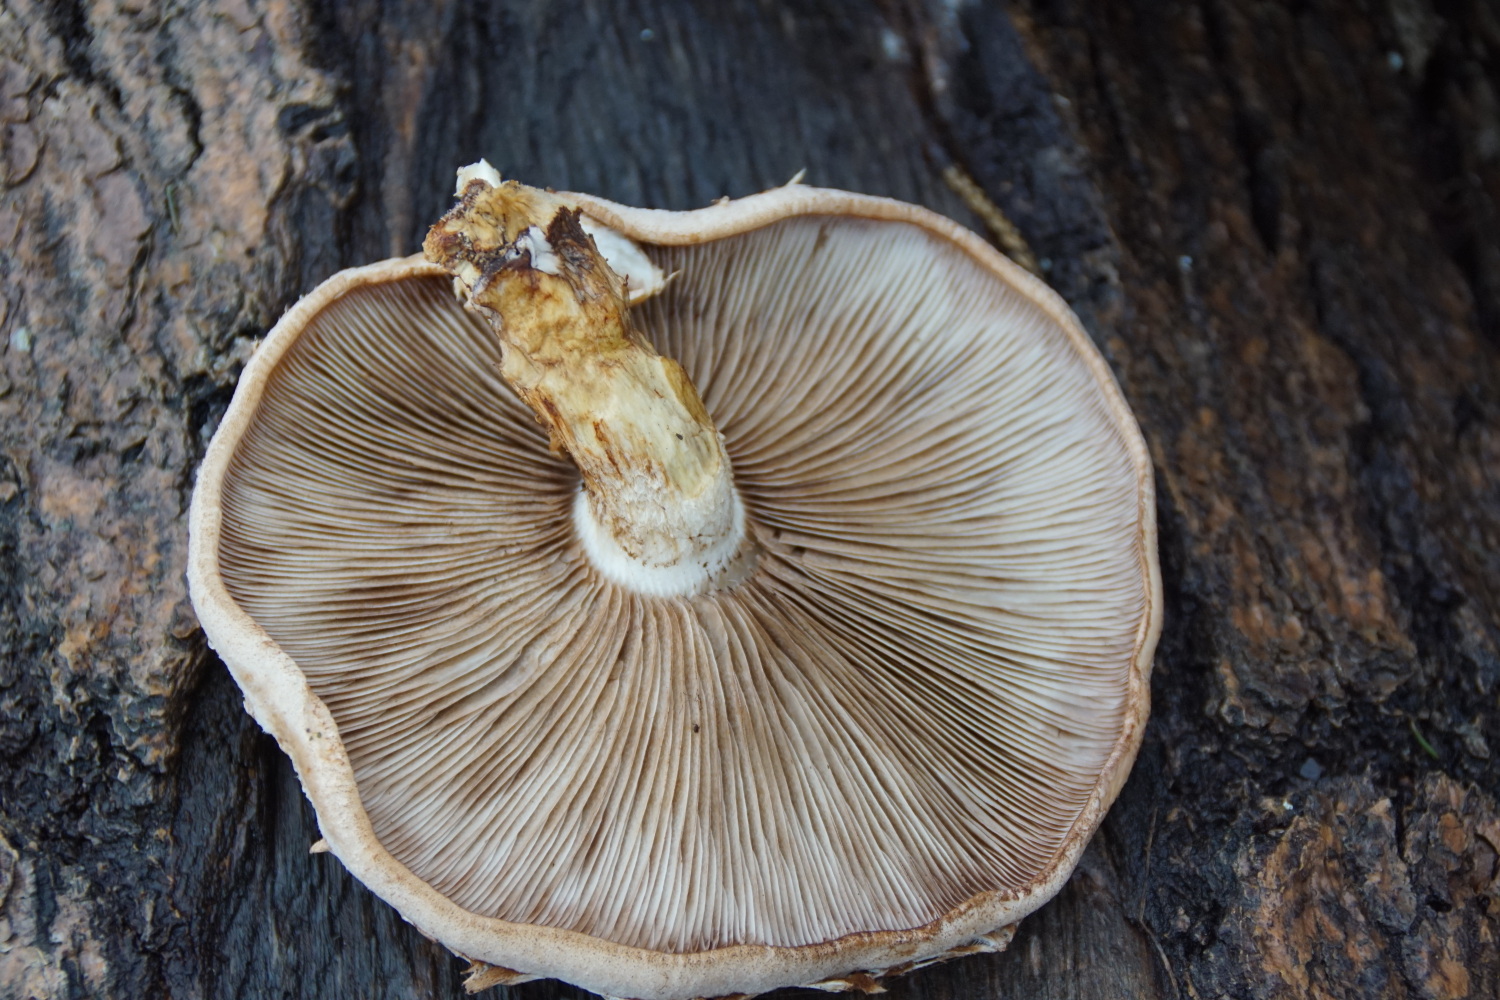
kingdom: Fungi
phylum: Basidiomycota
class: Agaricomycetes
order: Agaricales
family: Strophariaceae
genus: Pholiota
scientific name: Pholiota populnea
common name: poppel-kæmpeskælhat
